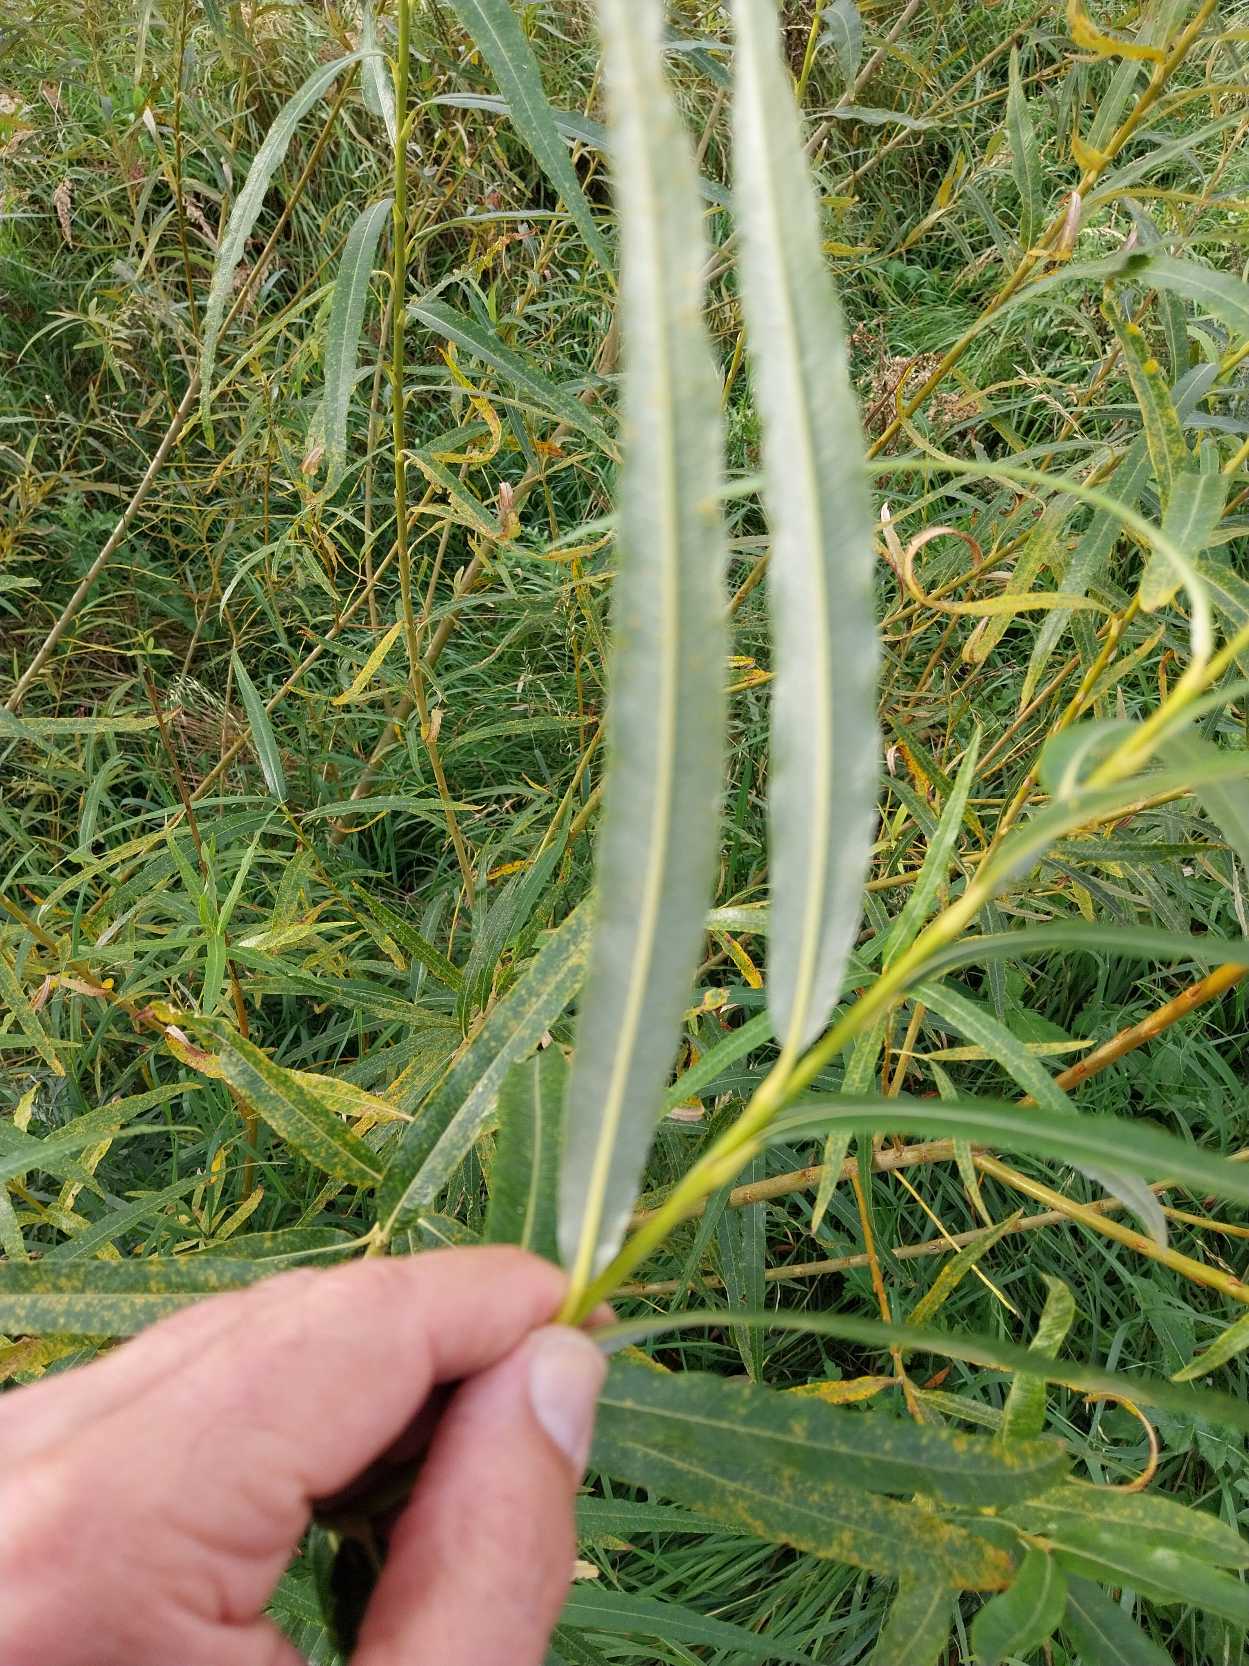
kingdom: Plantae
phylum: Tracheophyta
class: Magnoliopsida
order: Malpighiales
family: Salicaceae
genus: Salix
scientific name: Salix viminalis
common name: Bånd-pil
